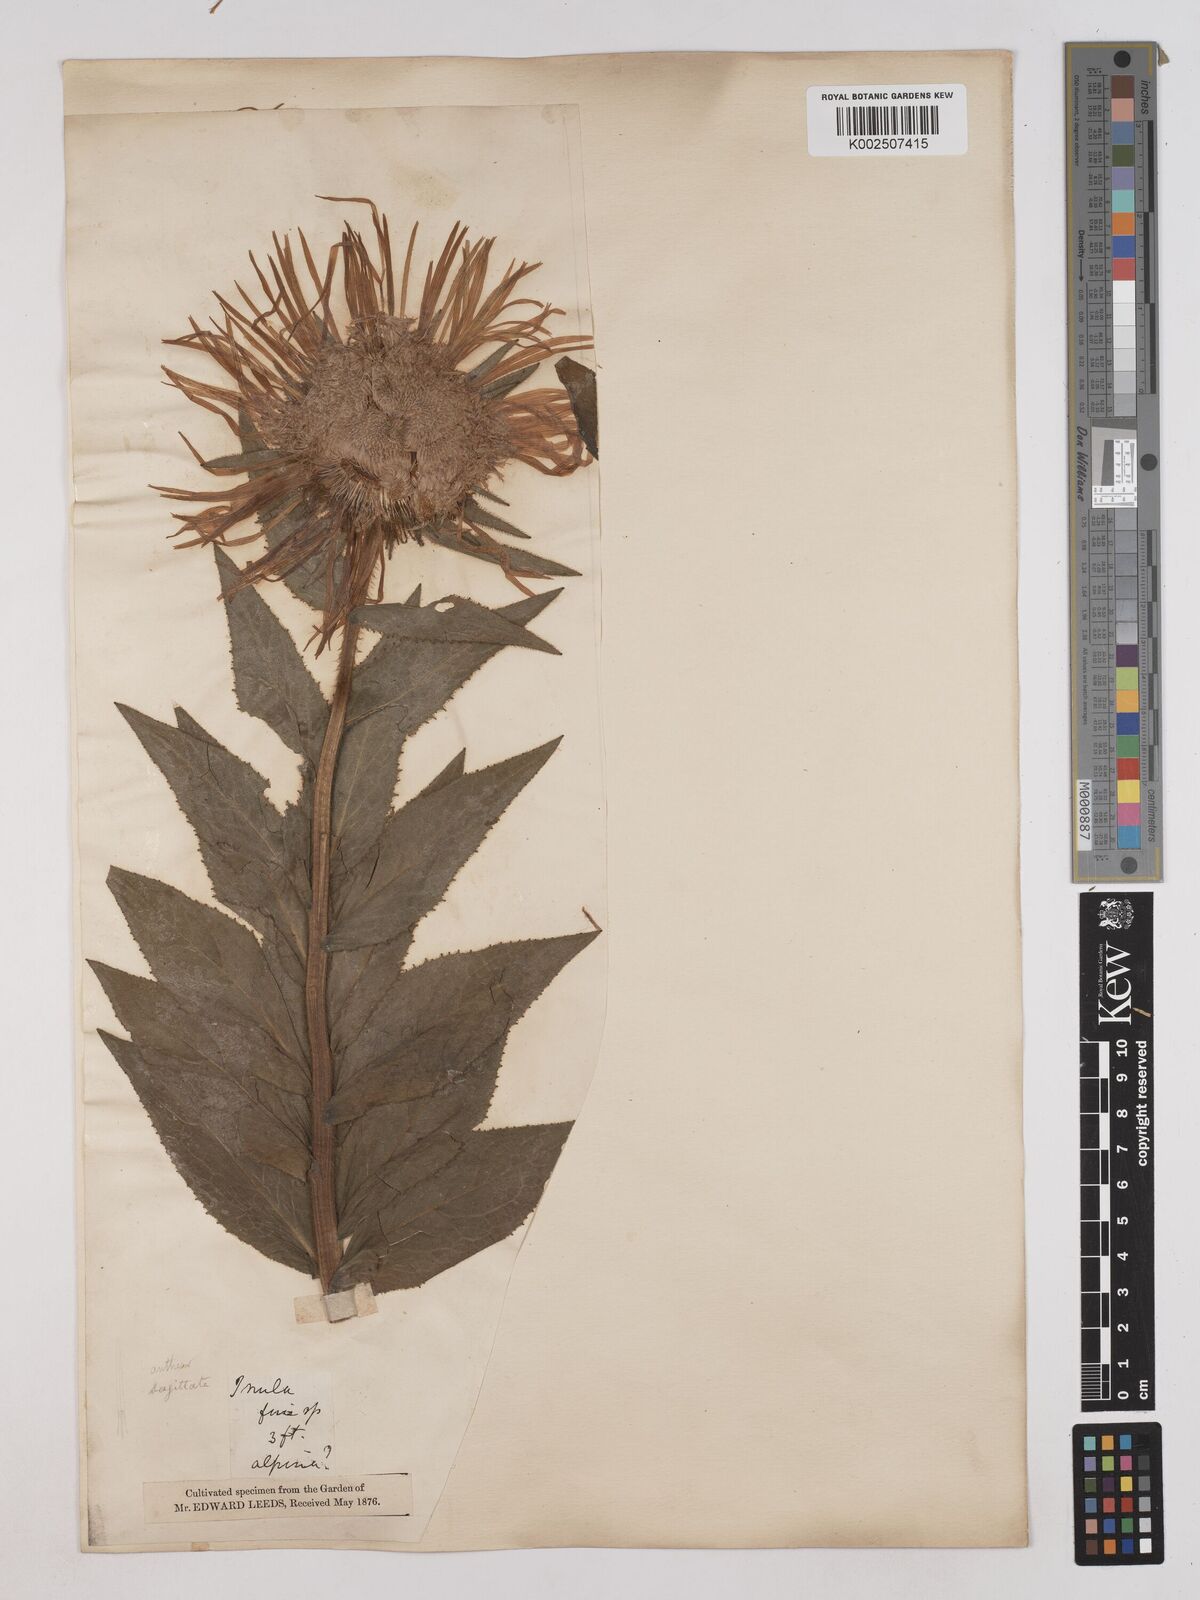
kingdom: Plantae
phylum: Tracheophyta
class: Magnoliopsida
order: Asterales
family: Asteraceae
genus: Pentanema
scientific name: Pentanema orientale
